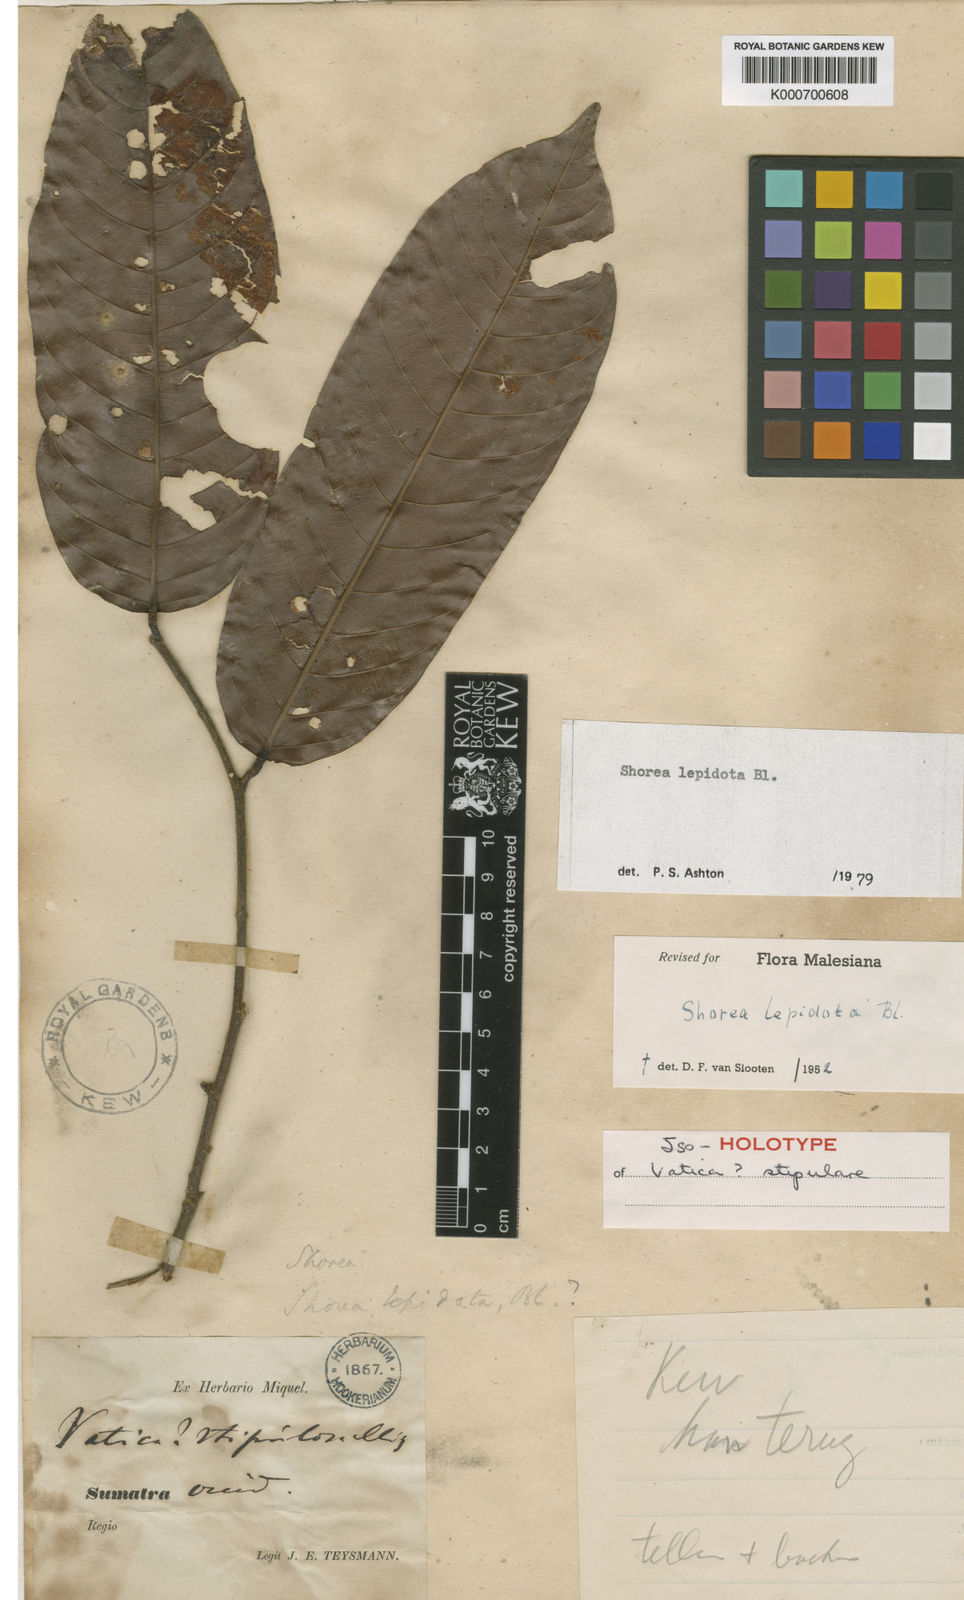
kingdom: Plantae
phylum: Tracheophyta
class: Magnoliopsida
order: Malvales
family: Dipterocarpaceae
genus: Shorea
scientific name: Shorea lepidota
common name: Light red meranti
